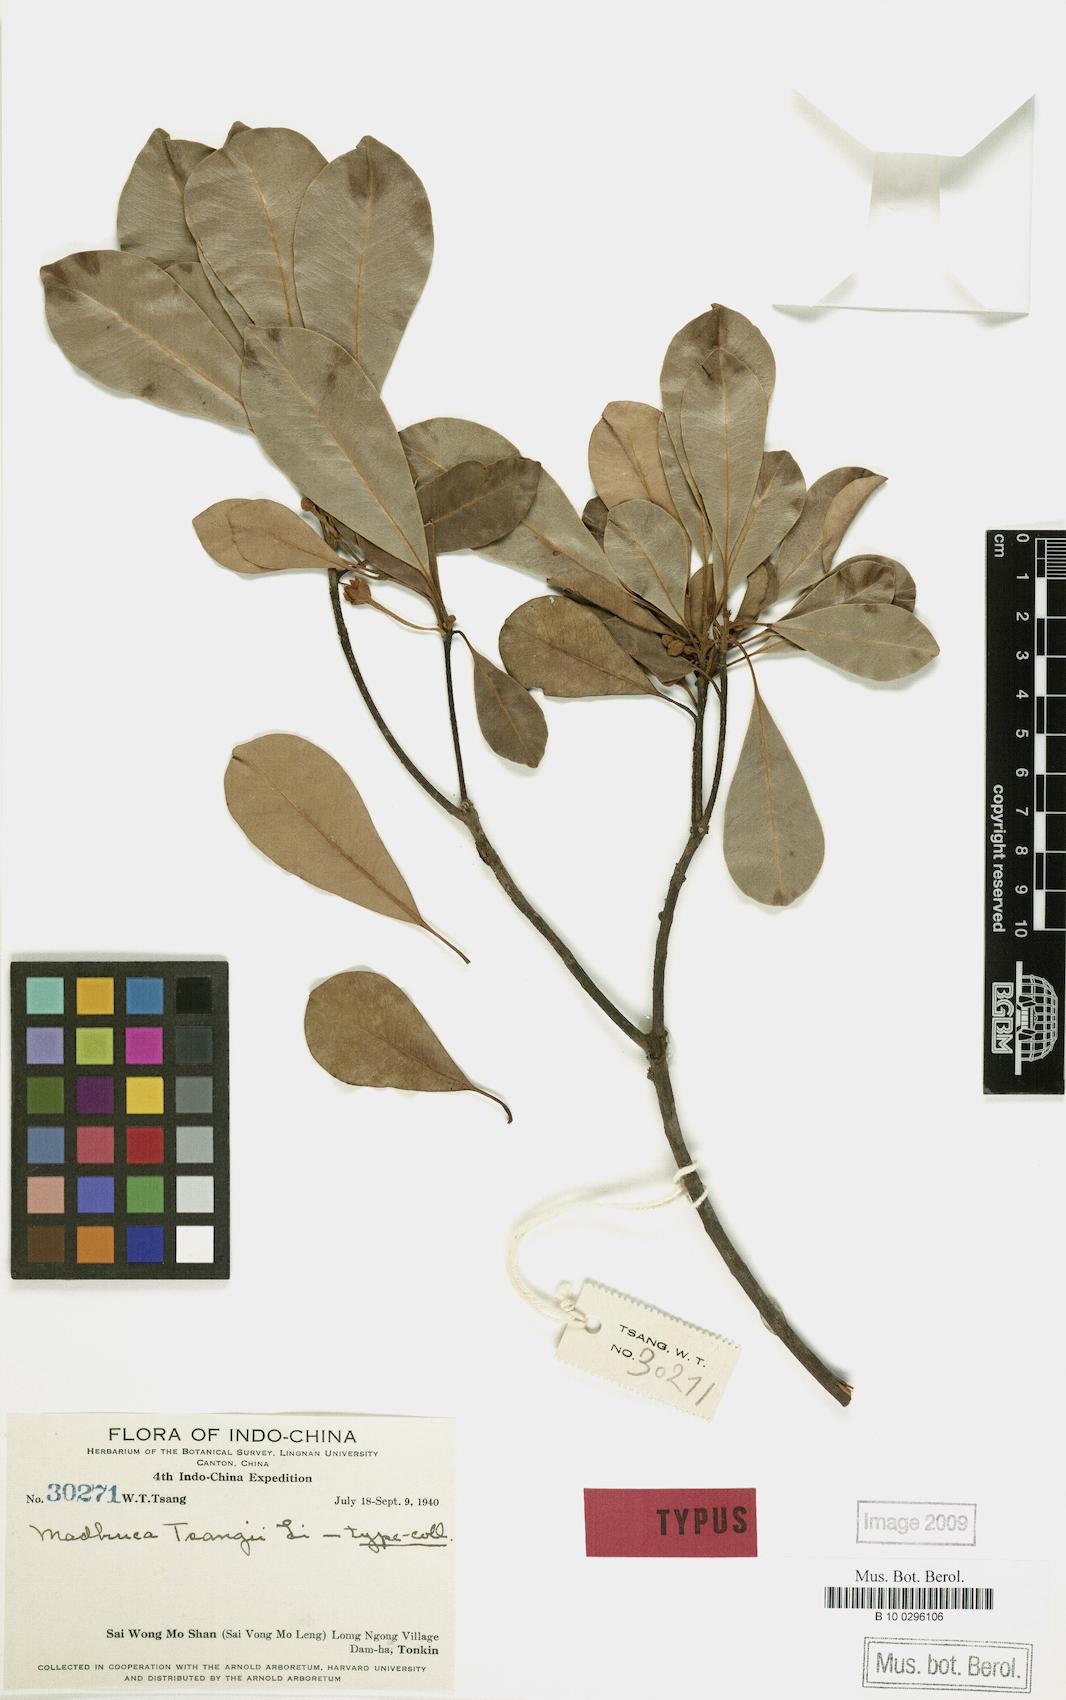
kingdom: Plantae
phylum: Tracheophyta
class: Magnoliopsida
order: Ericales
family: Sapotaceae
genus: Madhuca
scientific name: Madhuca pasquieri
